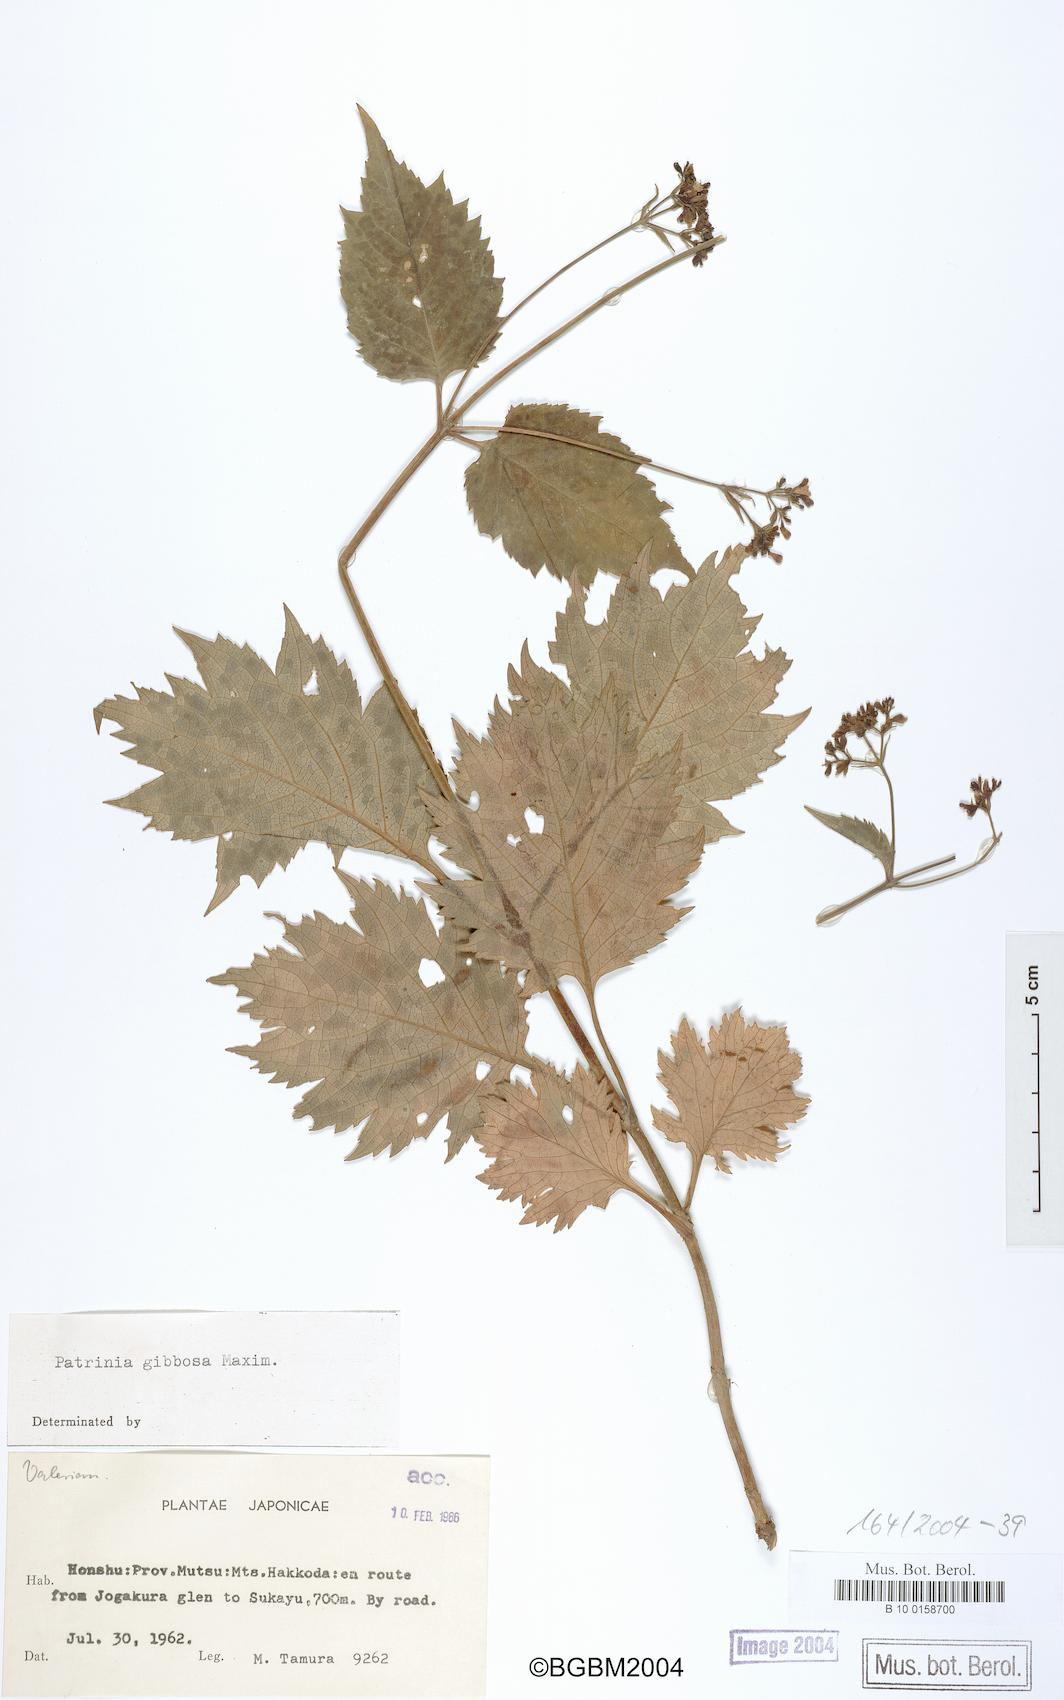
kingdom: Plantae
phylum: Tracheophyta
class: Magnoliopsida
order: Dipsacales
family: Caprifoliaceae
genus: Patrinia
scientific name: Patrinia gibbosa
